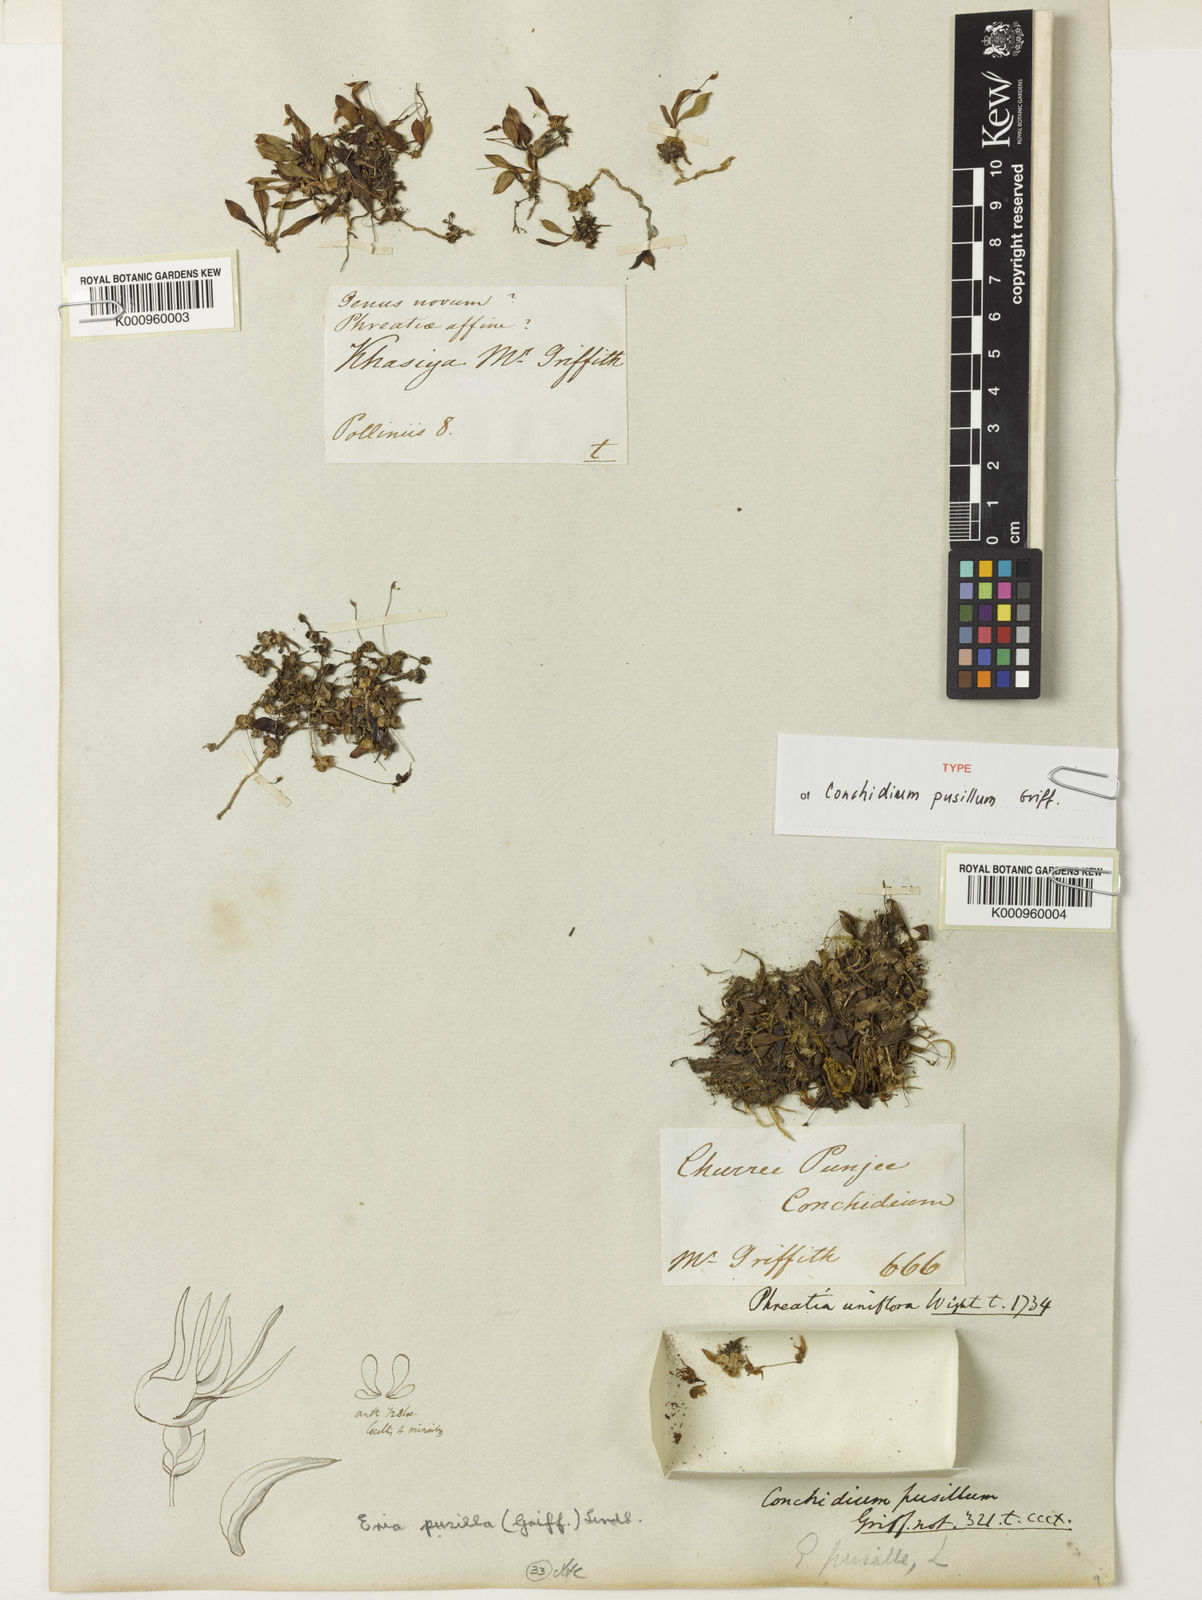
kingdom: Plantae
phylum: Tracheophyta
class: Liliopsida
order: Asparagales
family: Orchidaceae
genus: Porpax
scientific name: Porpax pusilla
